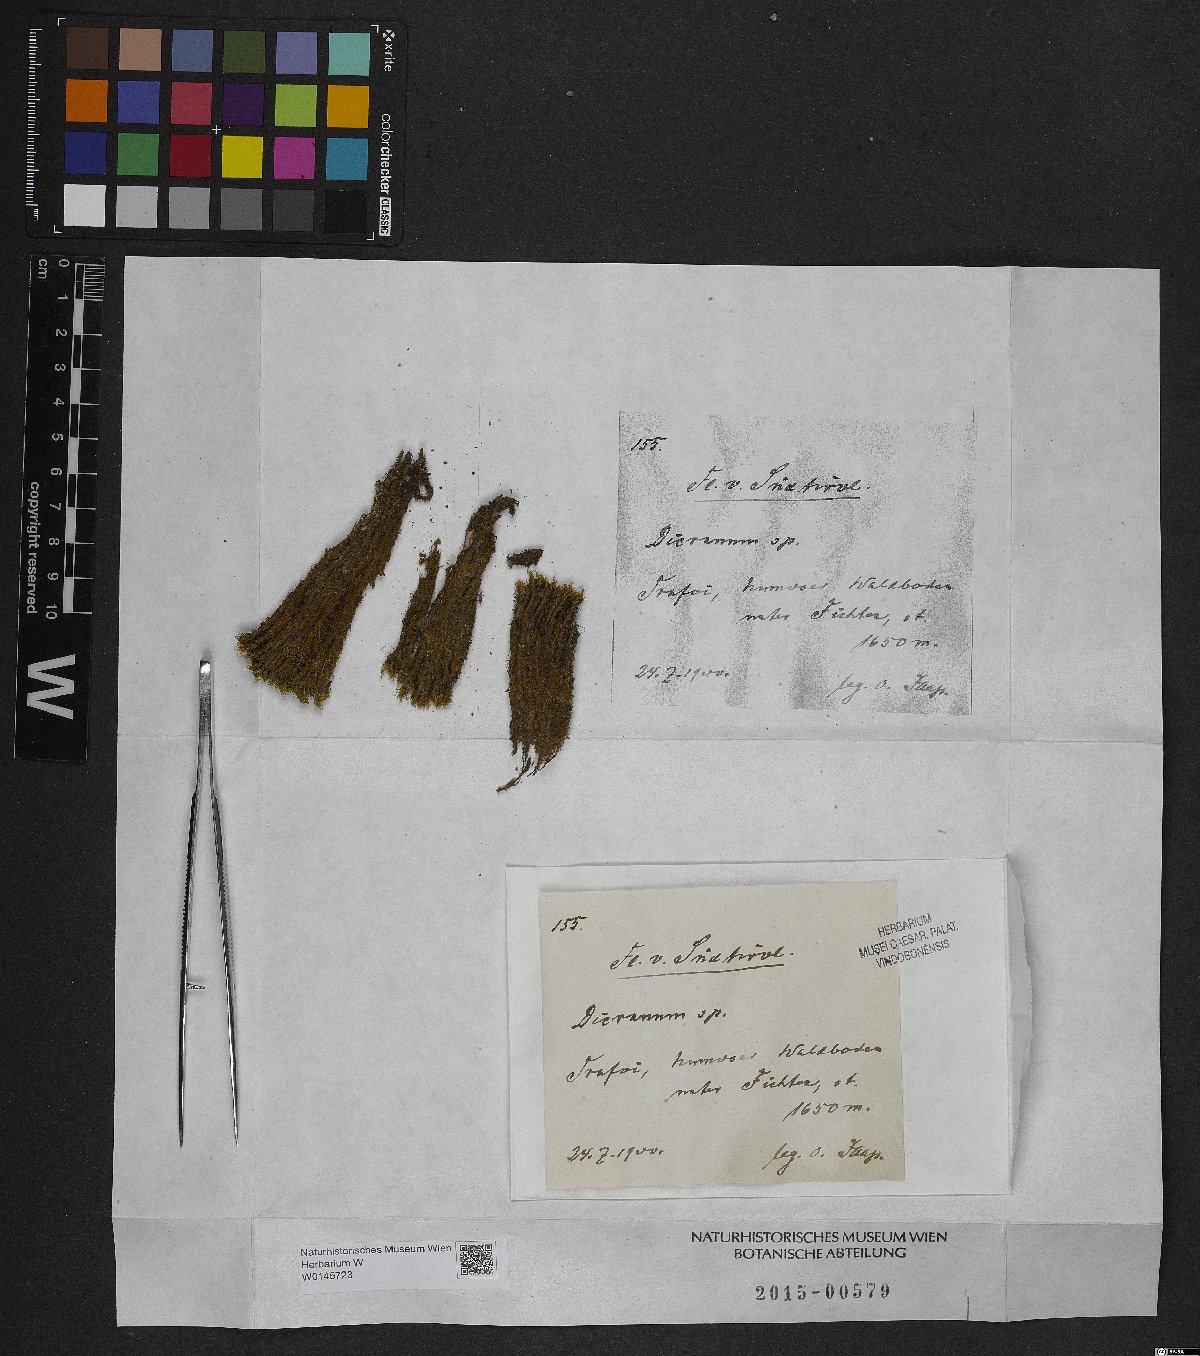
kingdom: Plantae
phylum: Bryophyta
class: Bryopsida
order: Dicranales
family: Dicranaceae
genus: Dicranum
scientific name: Dicranum
